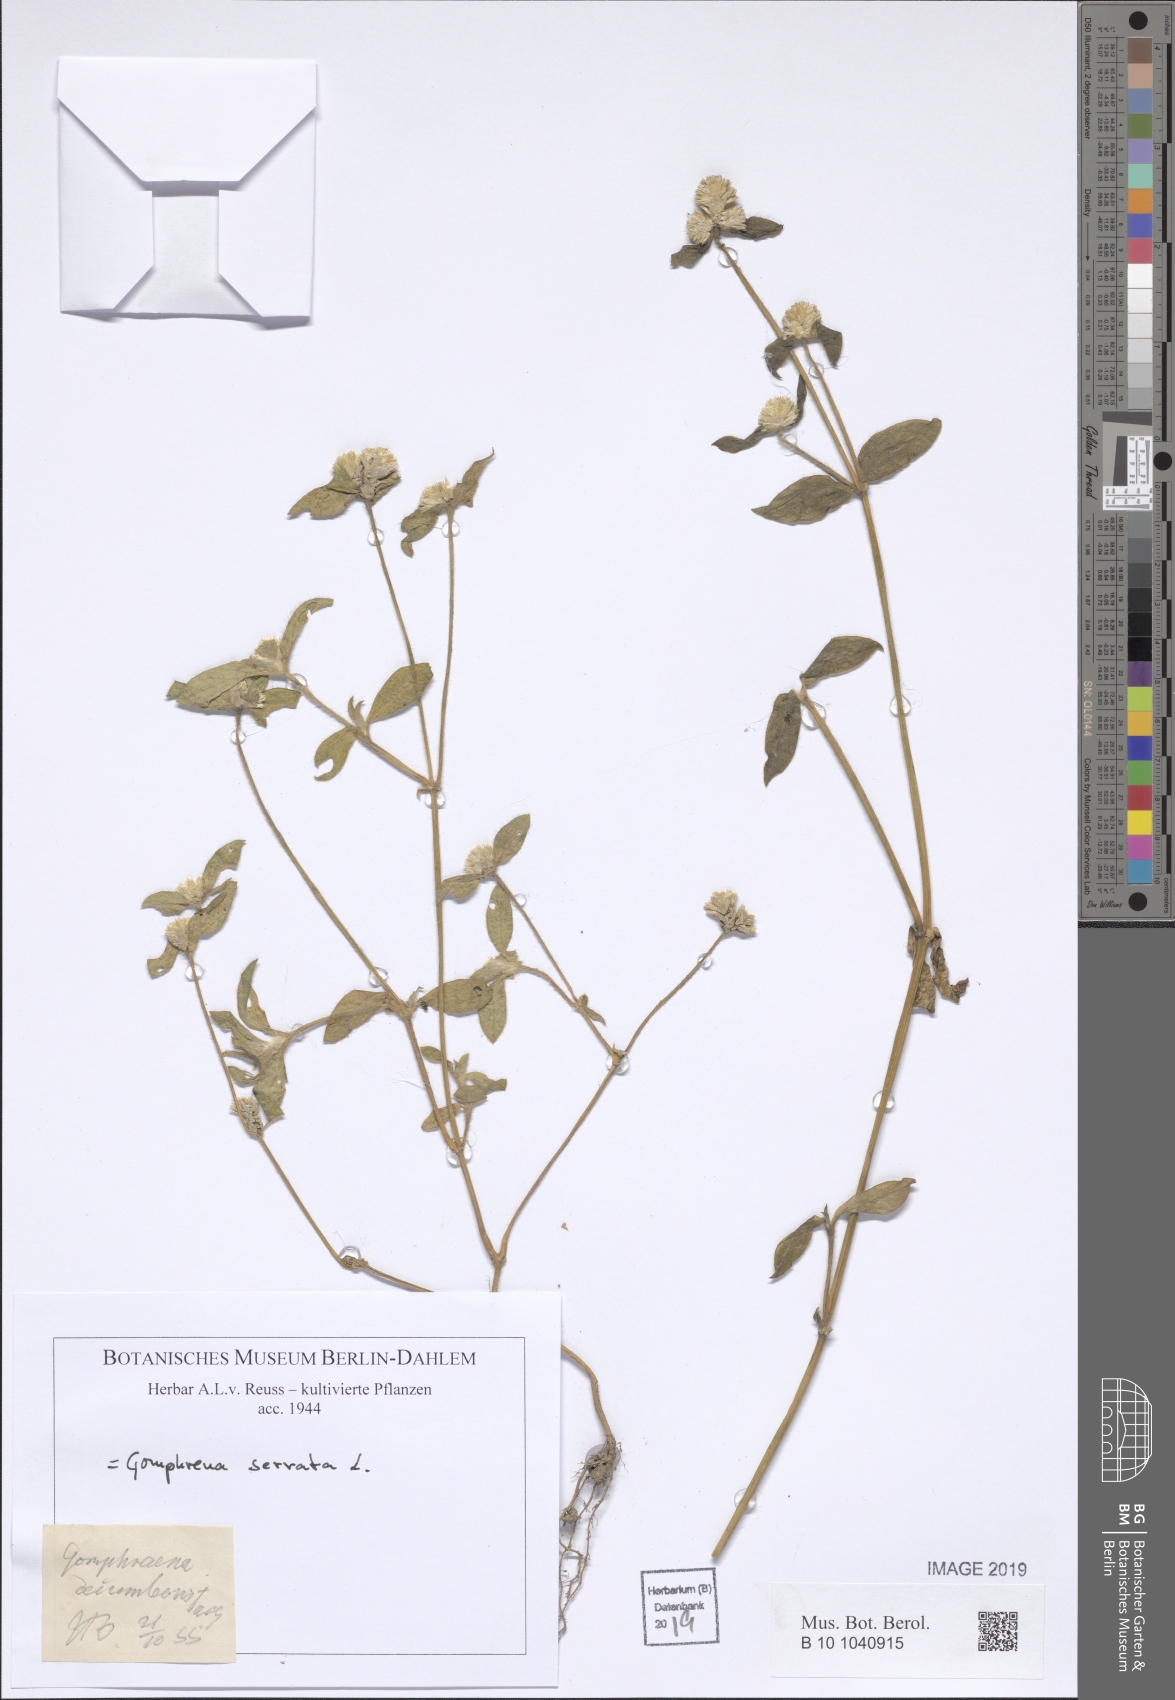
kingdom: Plantae
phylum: Tracheophyta
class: Magnoliopsida
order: Caryophyllales
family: Amaranthaceae
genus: Gomphrena
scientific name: Gomphrena serrata
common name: Arrasa con todo
